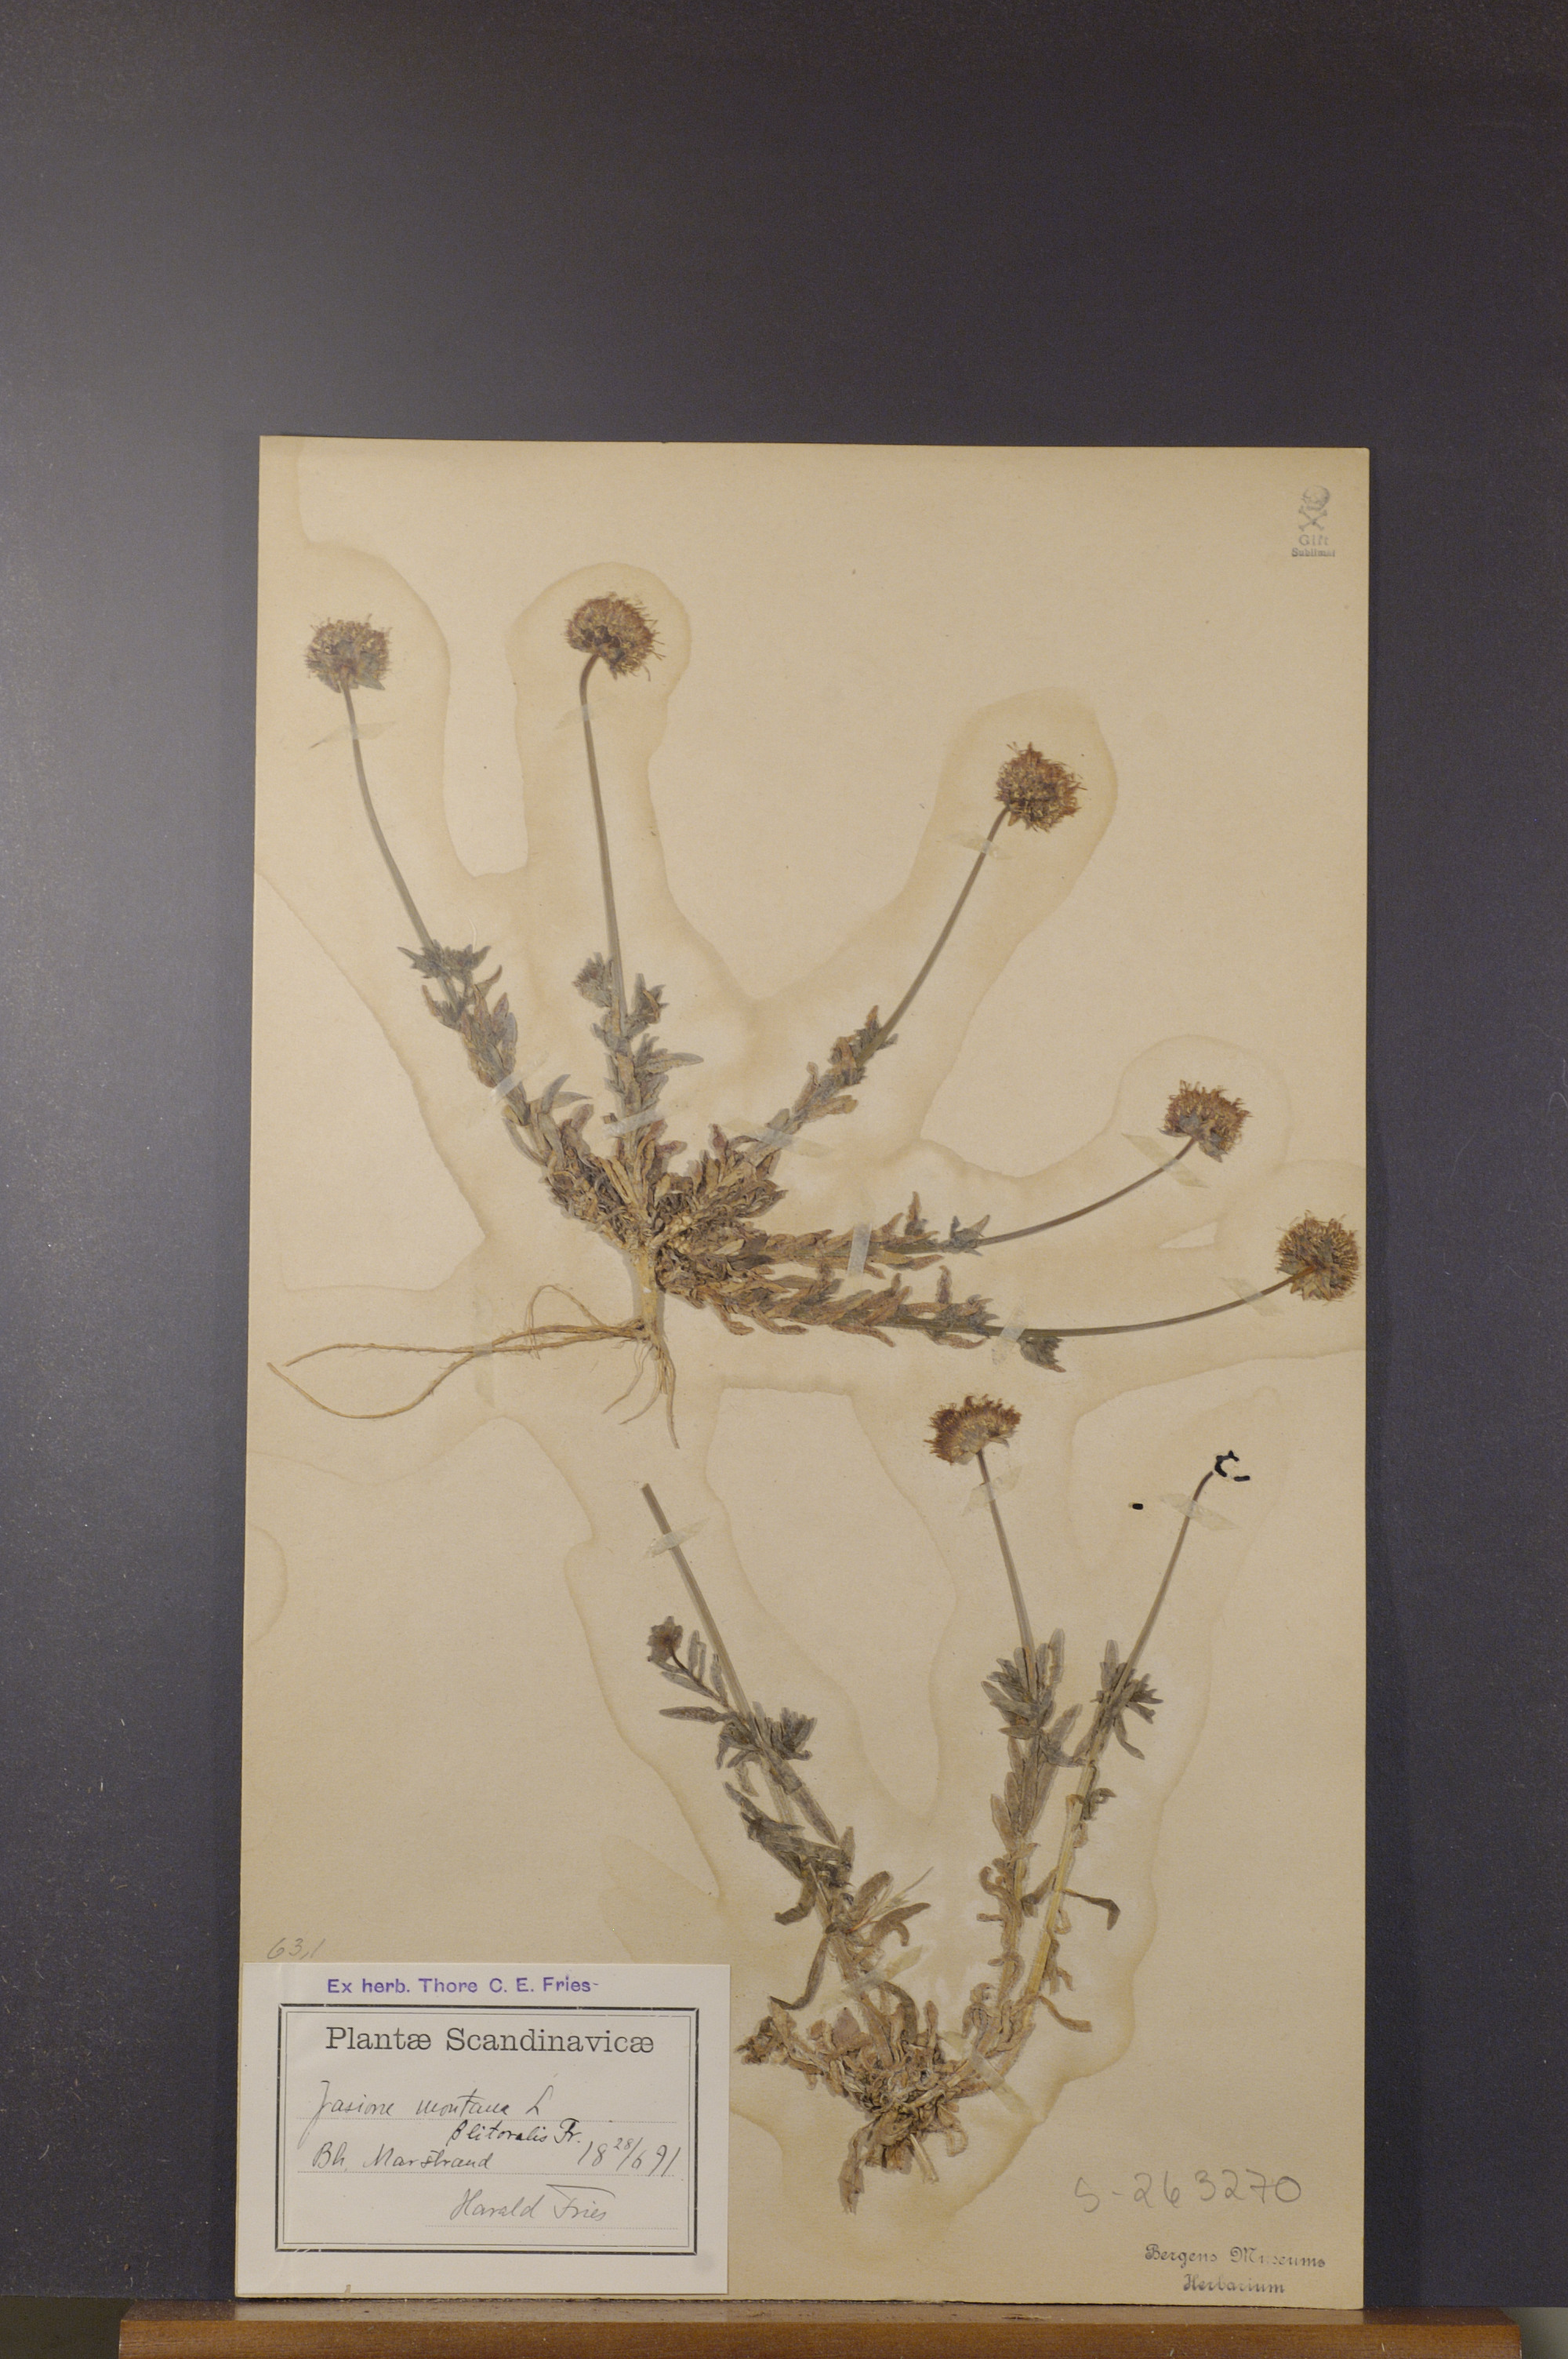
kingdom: Plantae
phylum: Tracheophyta
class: Magnoliopsida
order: Asterales
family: Campanulaceae
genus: Jasione
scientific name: Jasione montana
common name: Sheep's-bit
